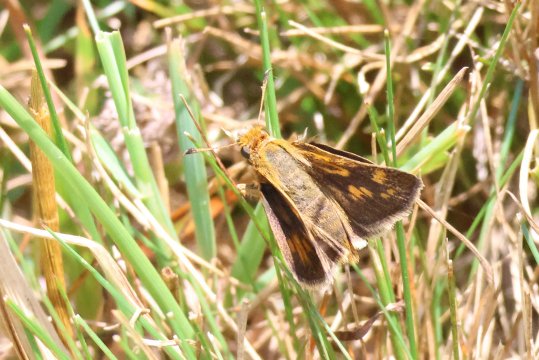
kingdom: Animalia
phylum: Arthropoda
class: Insecta
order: Lepidoptera
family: Hesperiidae
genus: Polites
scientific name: Polites coras
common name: Peck's Skipper
